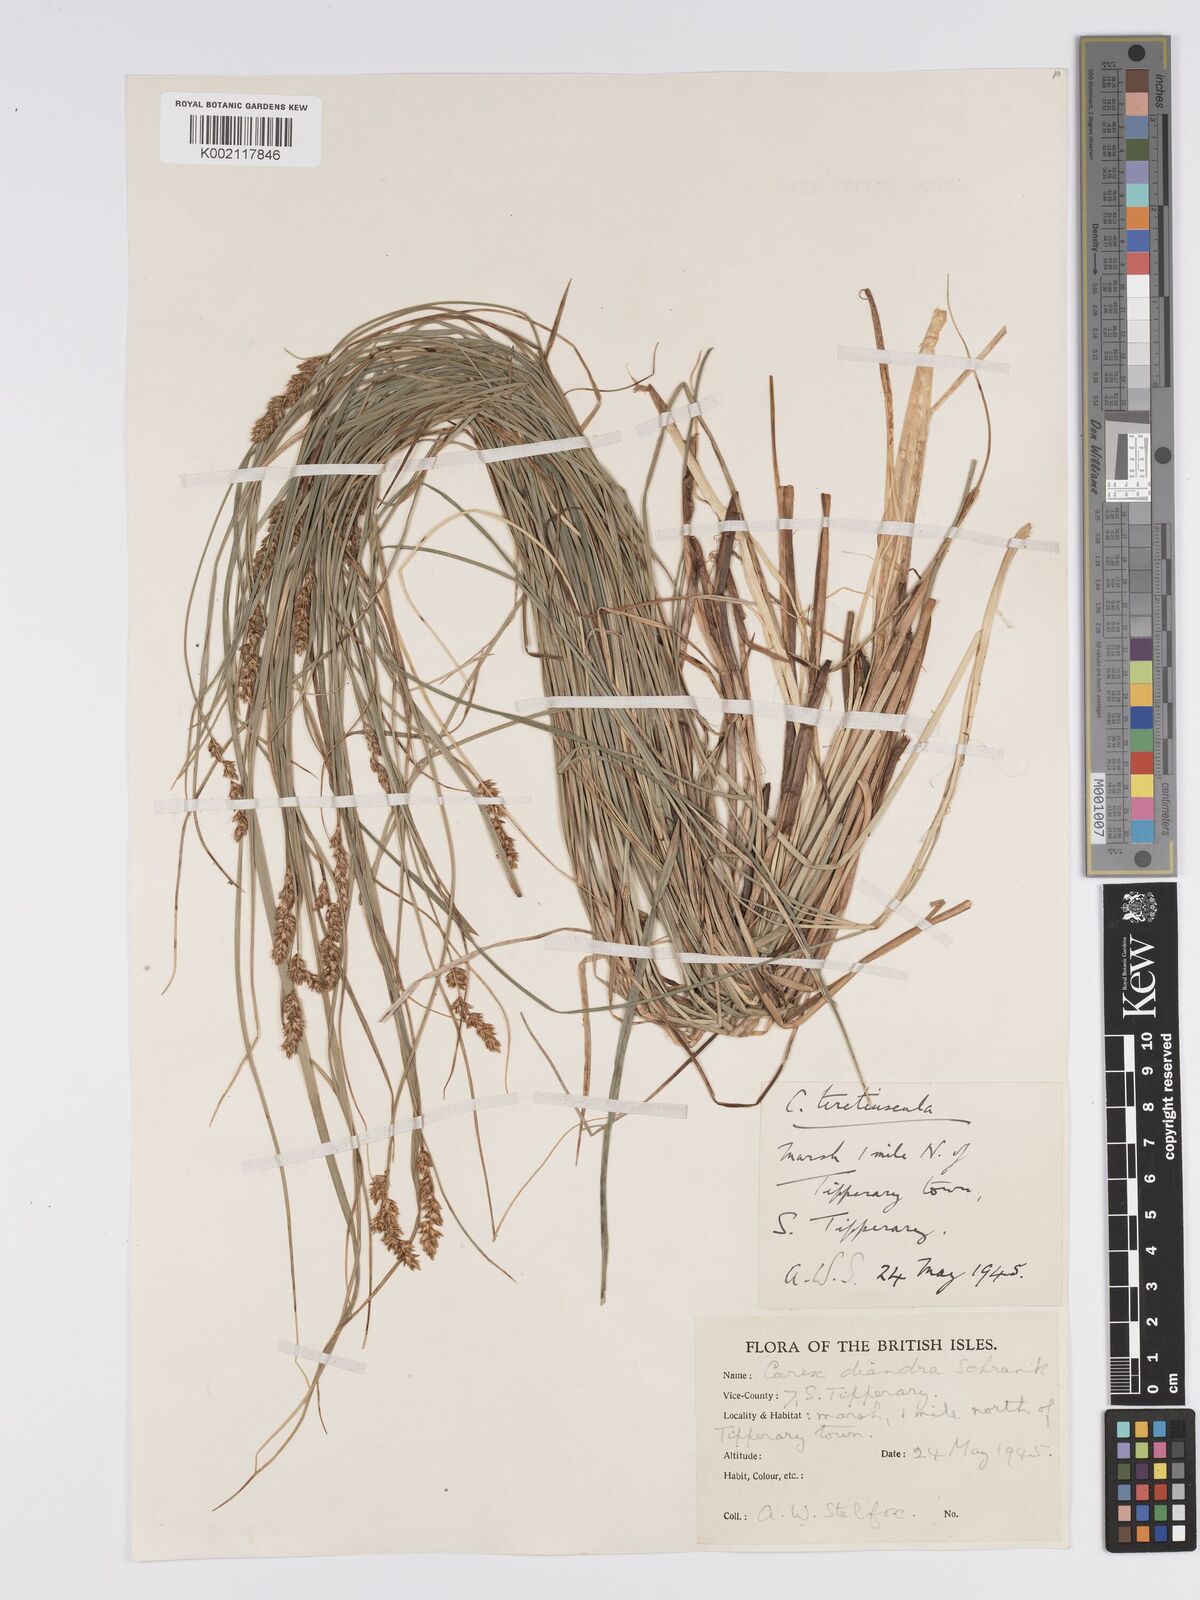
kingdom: Plantae
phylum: Tracheophyta
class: Liliopsida
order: Poales
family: Cyperaceae
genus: Carex
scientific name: Carex diandra
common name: Lesser tussock-sedge
